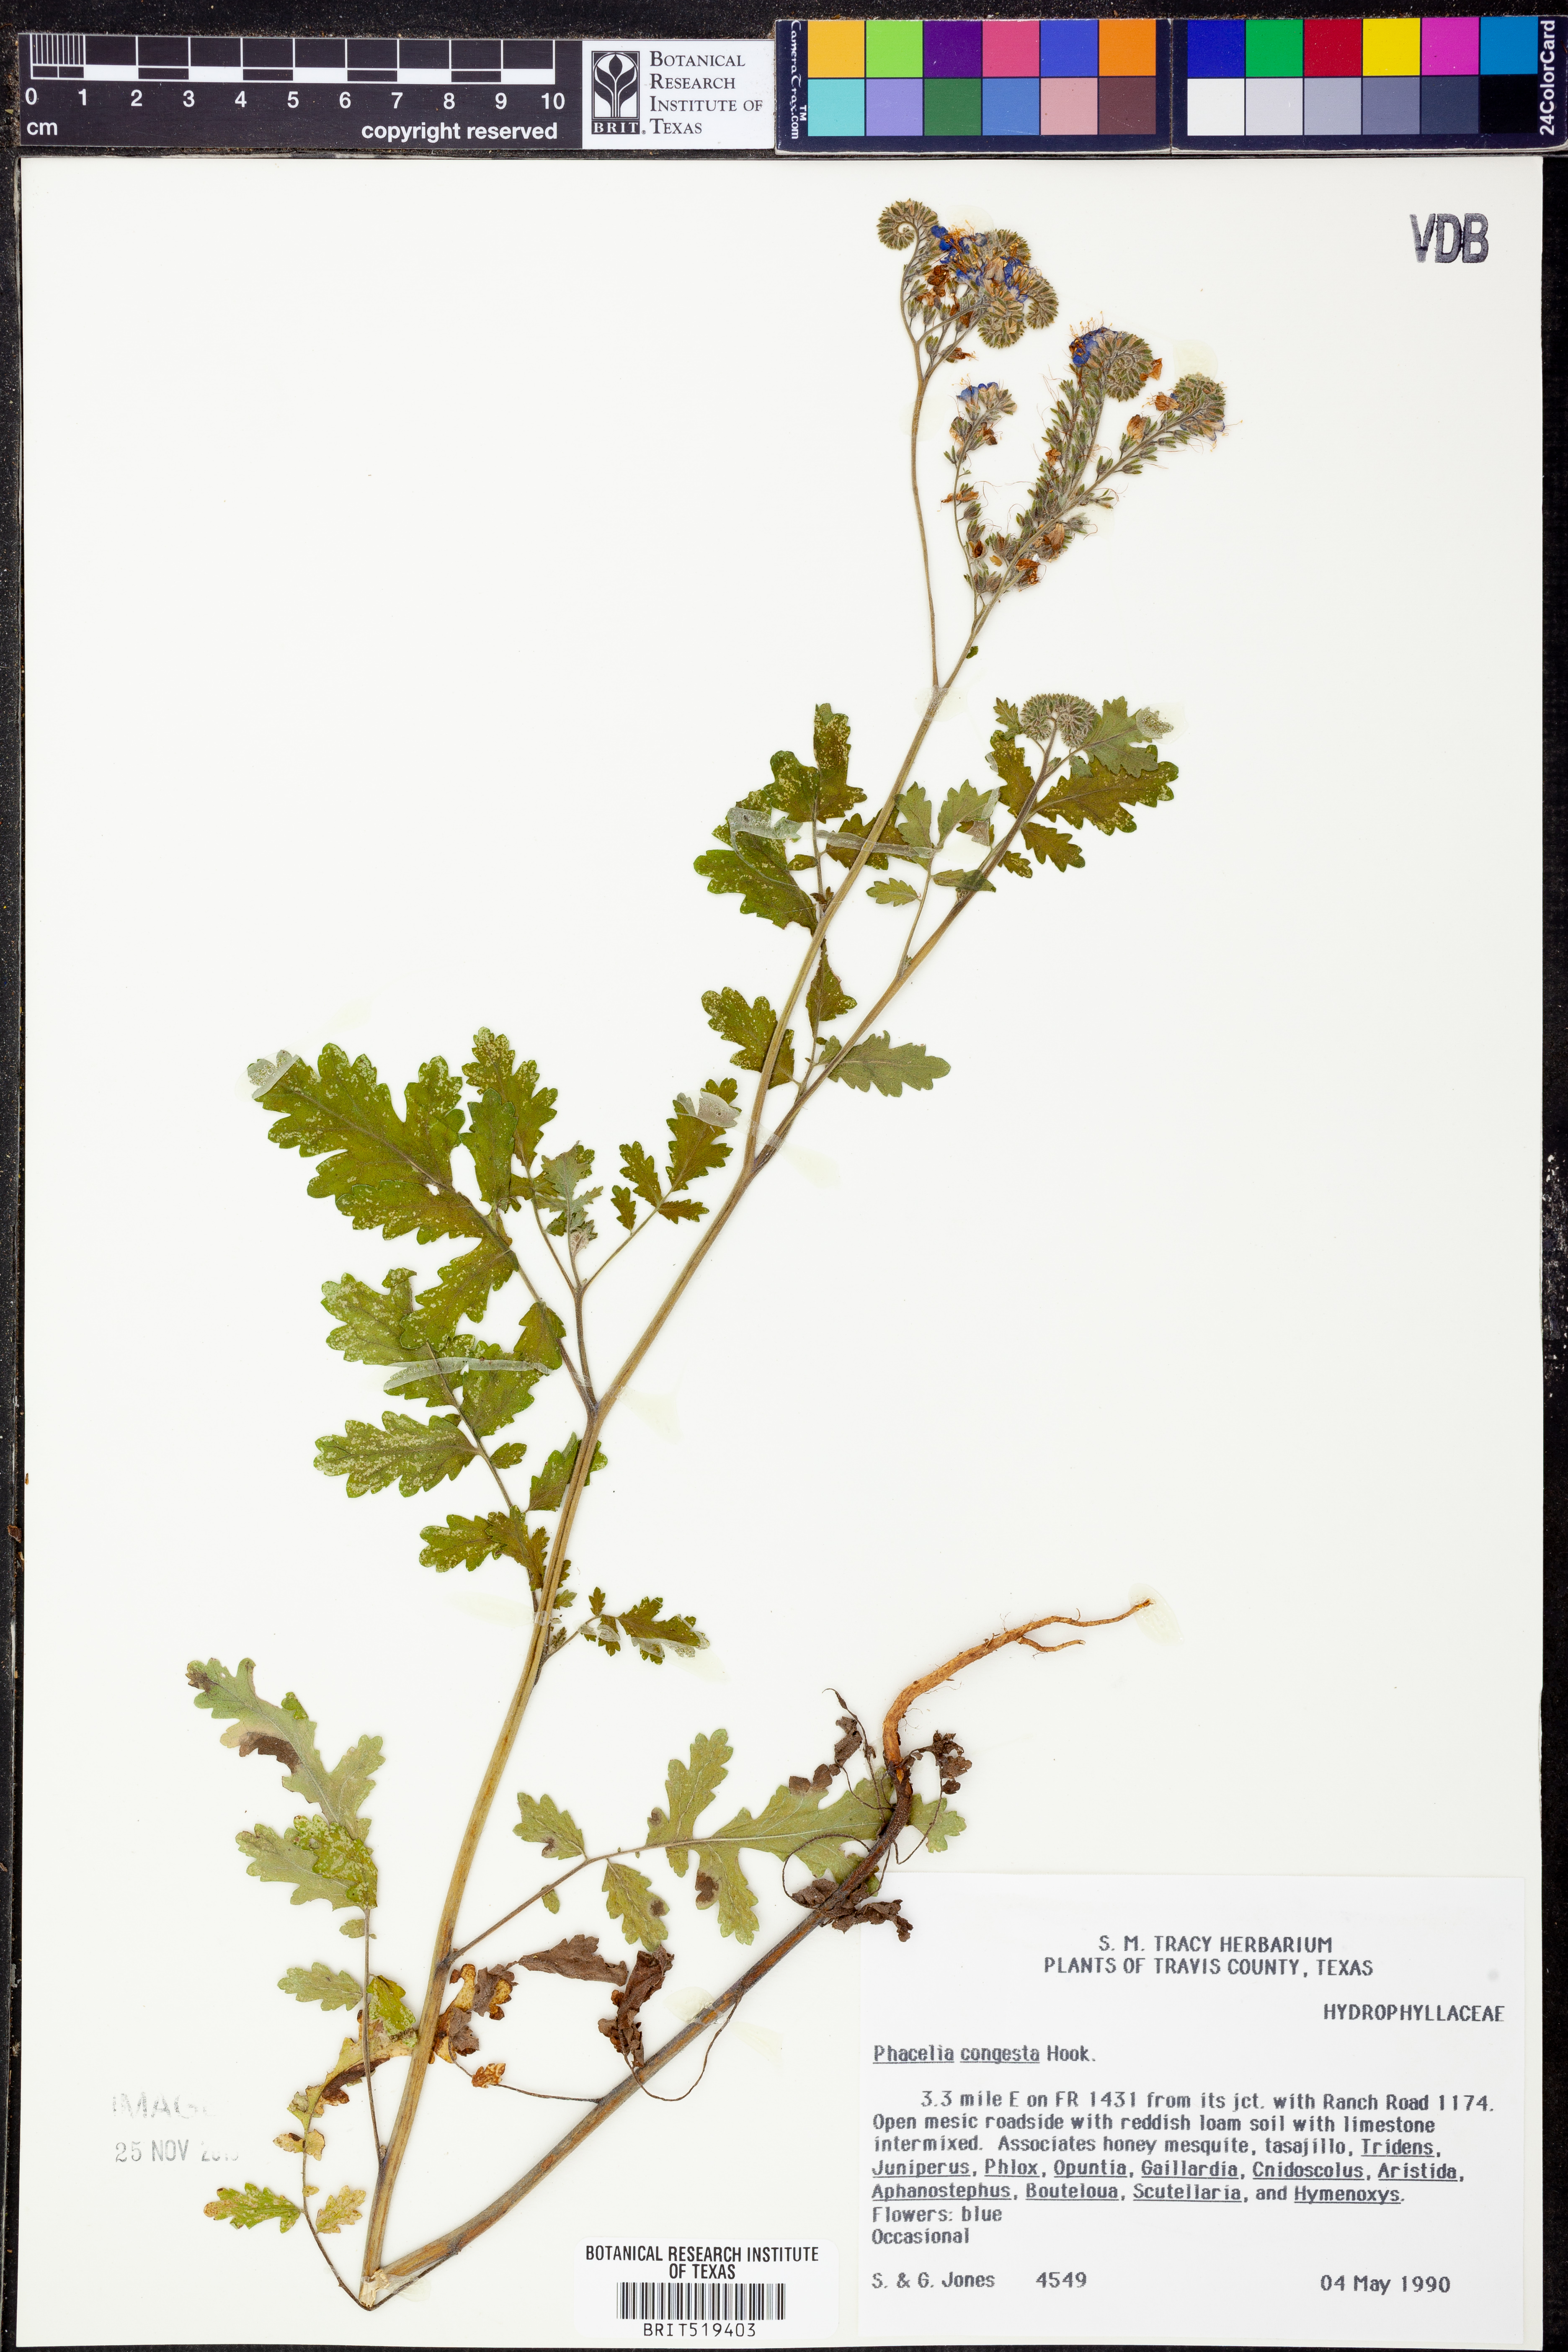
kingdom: Plantae
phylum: Tracheophyta
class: Magnoliopsida
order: Boraginales
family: Hydrophyllaceae
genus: Phacelia
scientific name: Phacelia congesta
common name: Blue curls
